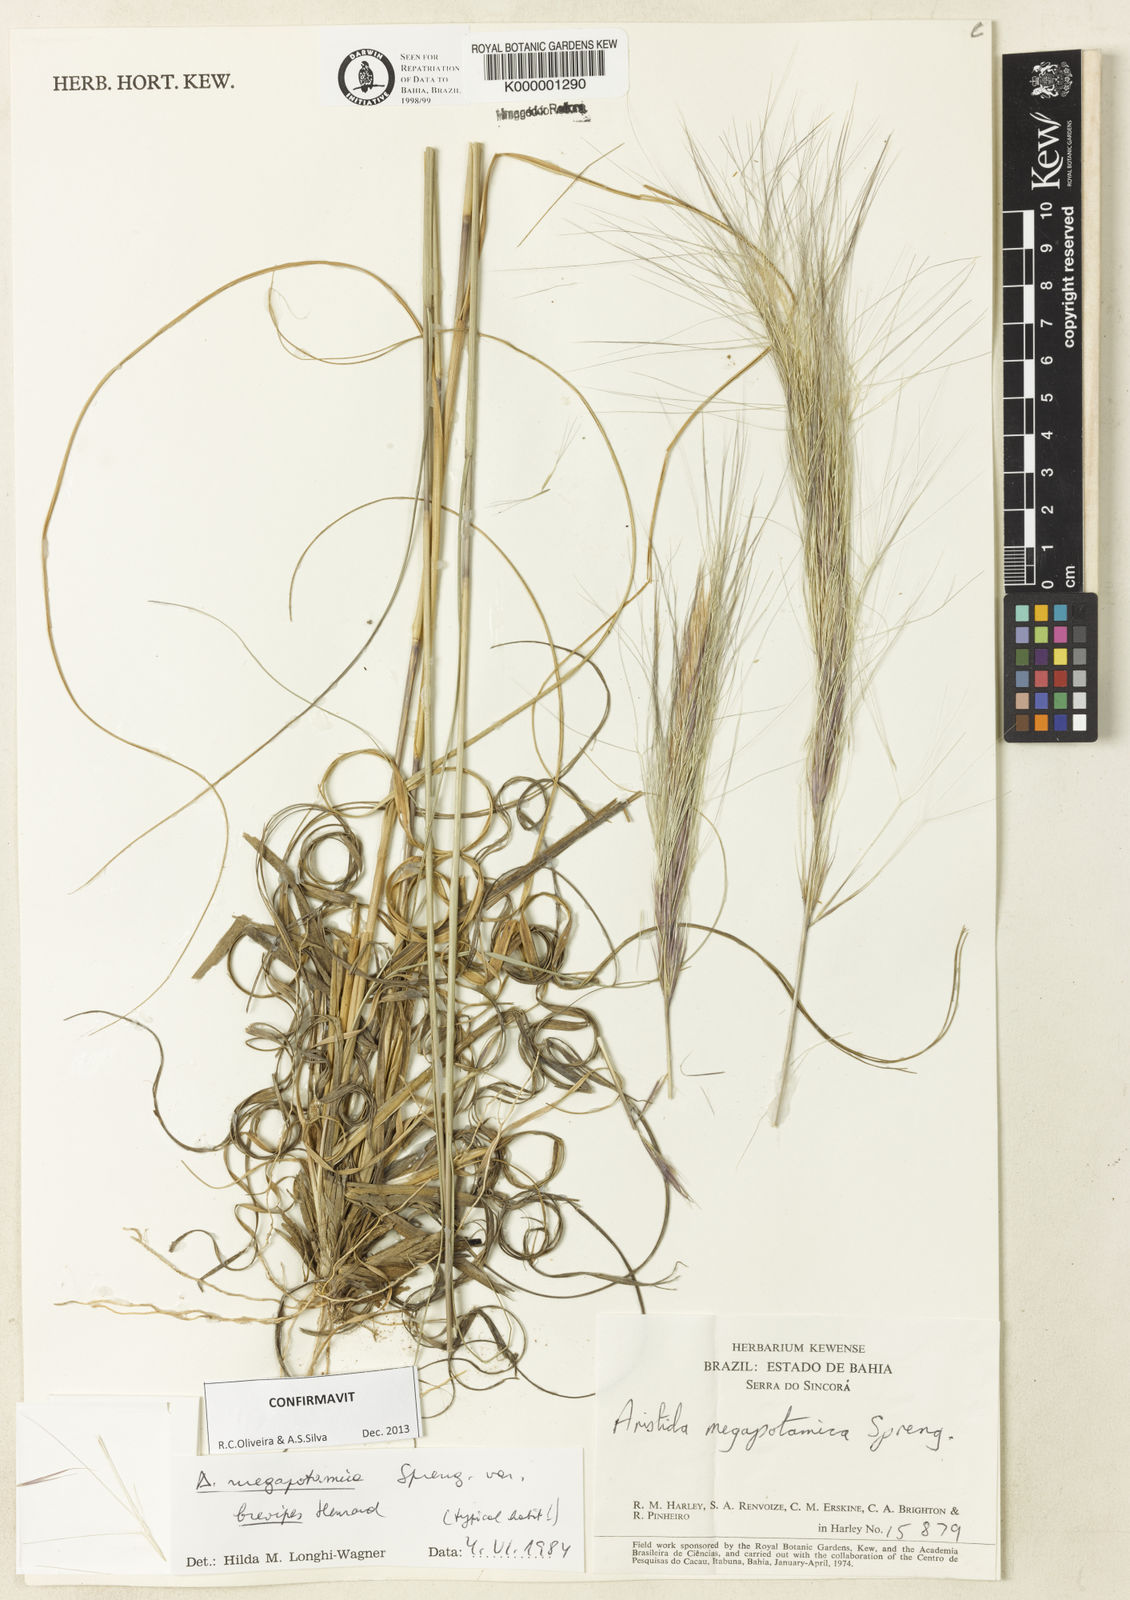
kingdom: Plantae
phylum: Tracheophyta
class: Liliopsida
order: Poales
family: Poaceae
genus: Aristida
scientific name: Aristida megapotamica
